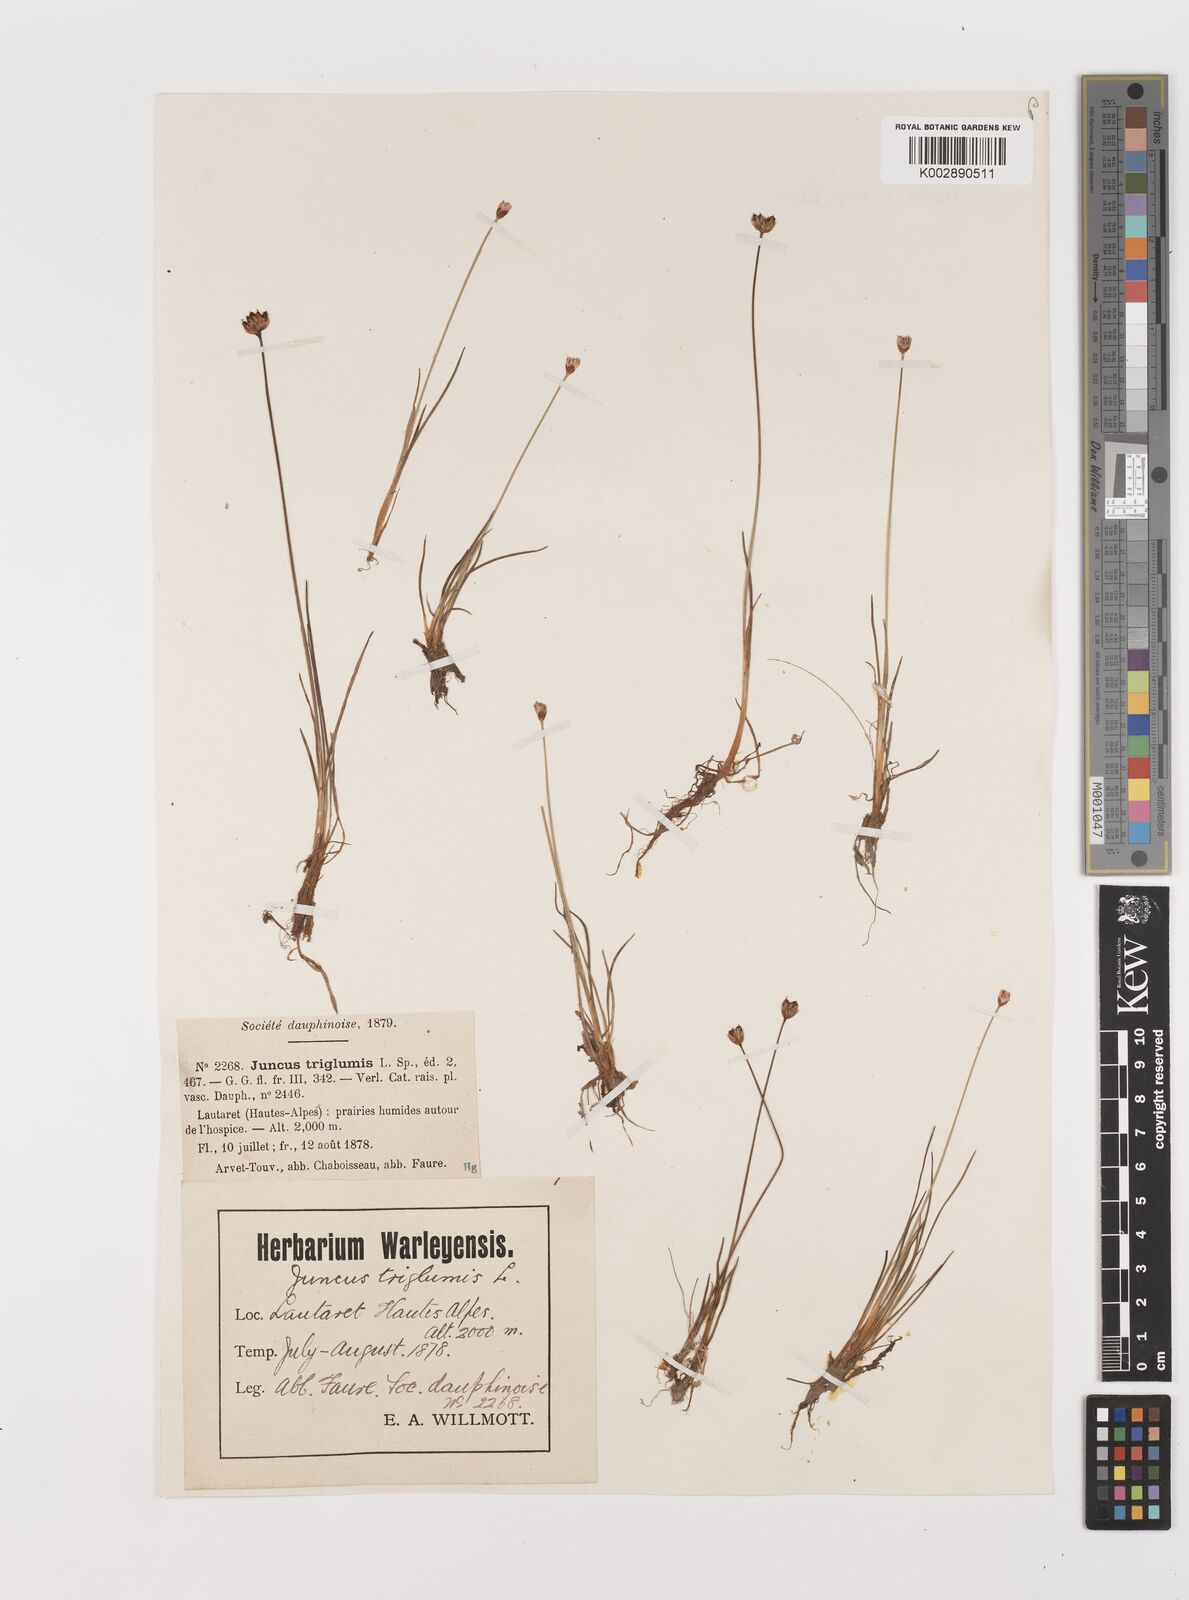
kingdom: Plantae
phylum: Tracheophyta
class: Liliopsida
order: Poales
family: Juncaceae
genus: Juncus
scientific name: Juncus triglumis
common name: Three-flowered rush
